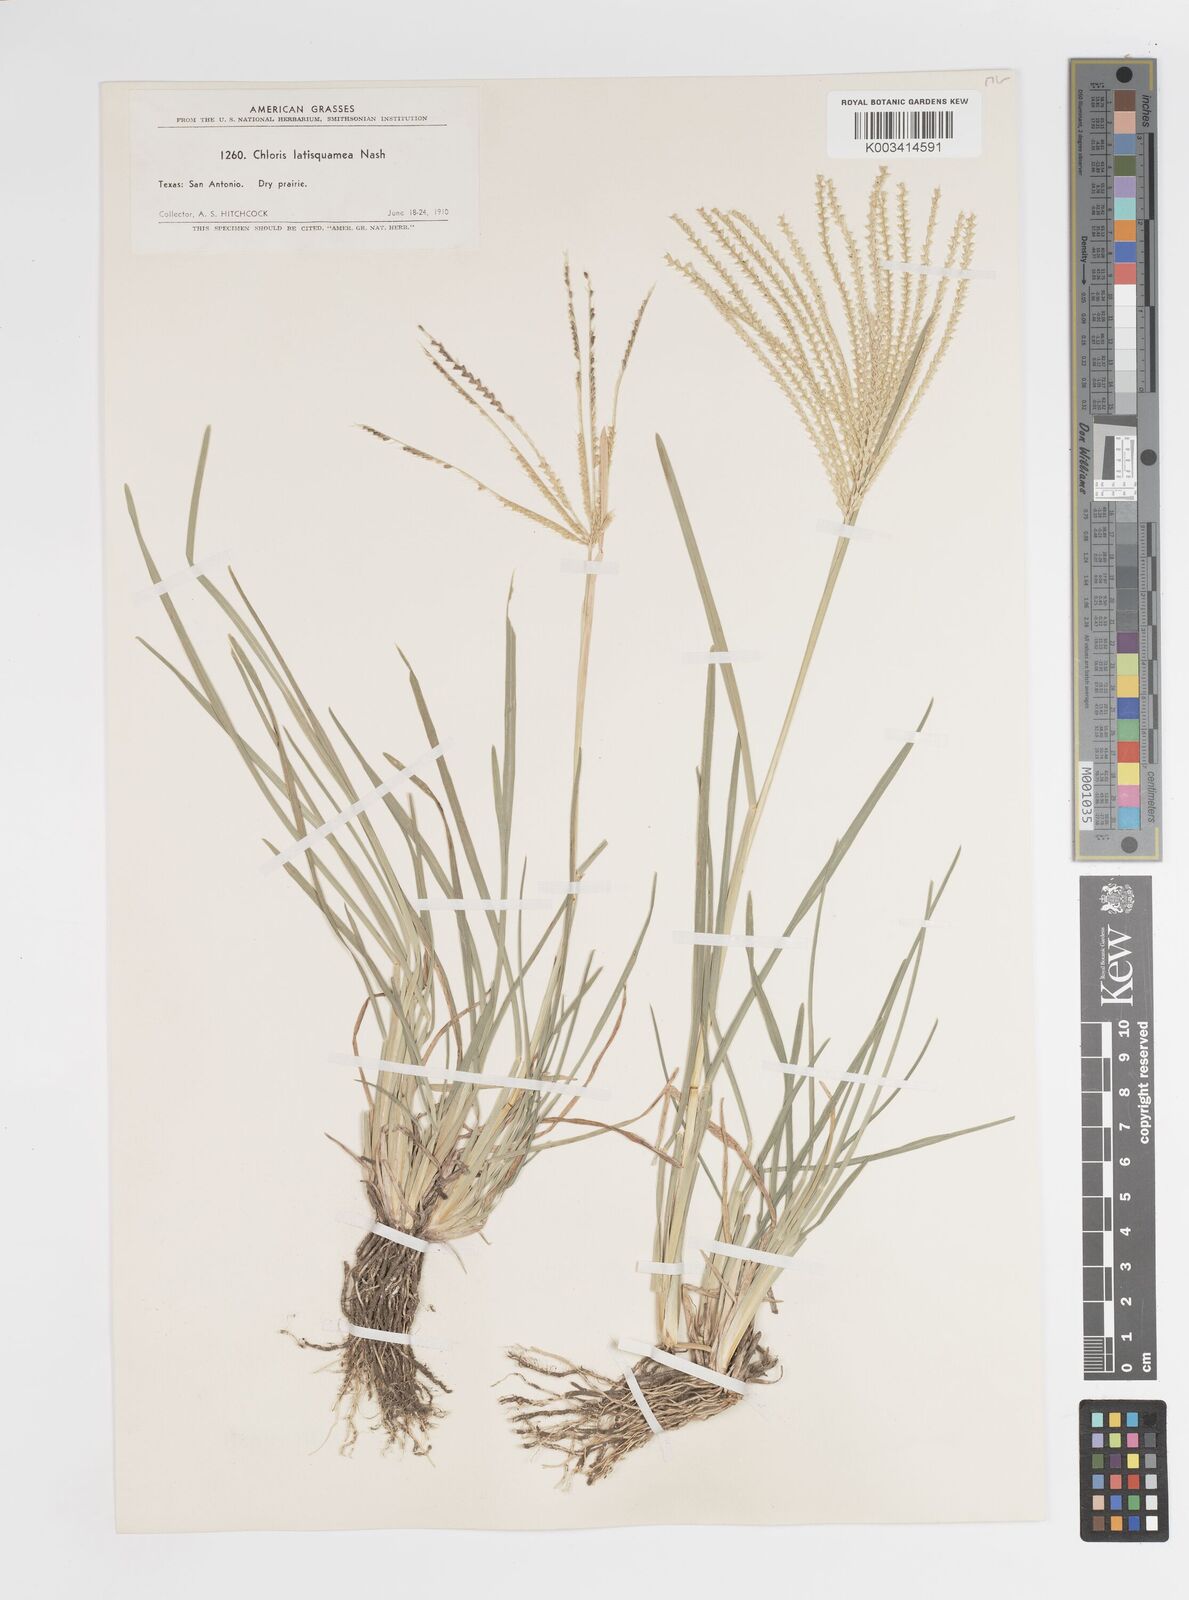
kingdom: Plantae
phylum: Tracheophyta
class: Liliopsida
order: Poales
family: Poaceae
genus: Chloris
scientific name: Chloris subdolichostachya
